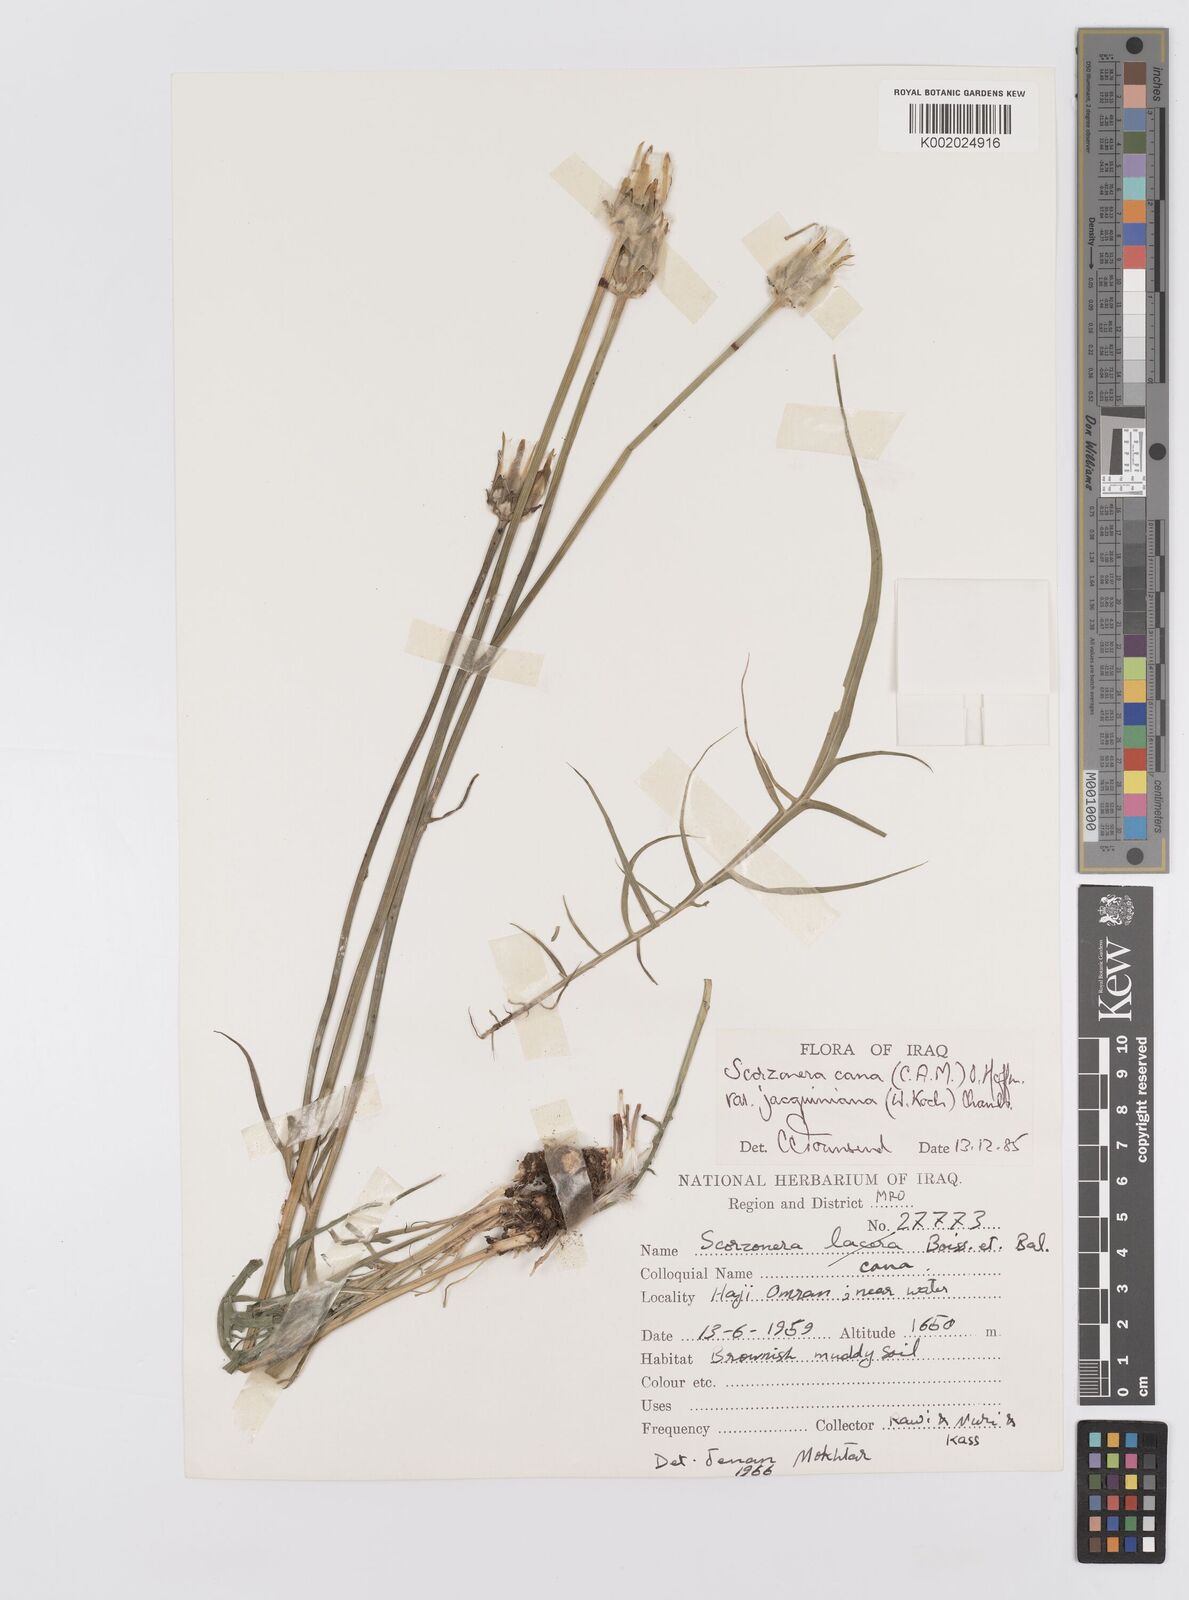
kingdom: Plantae
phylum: Tracheophyta
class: Magnoliopsida
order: Asterales
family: Asteraceae
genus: Scorzonera
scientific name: Scorzonera cana
